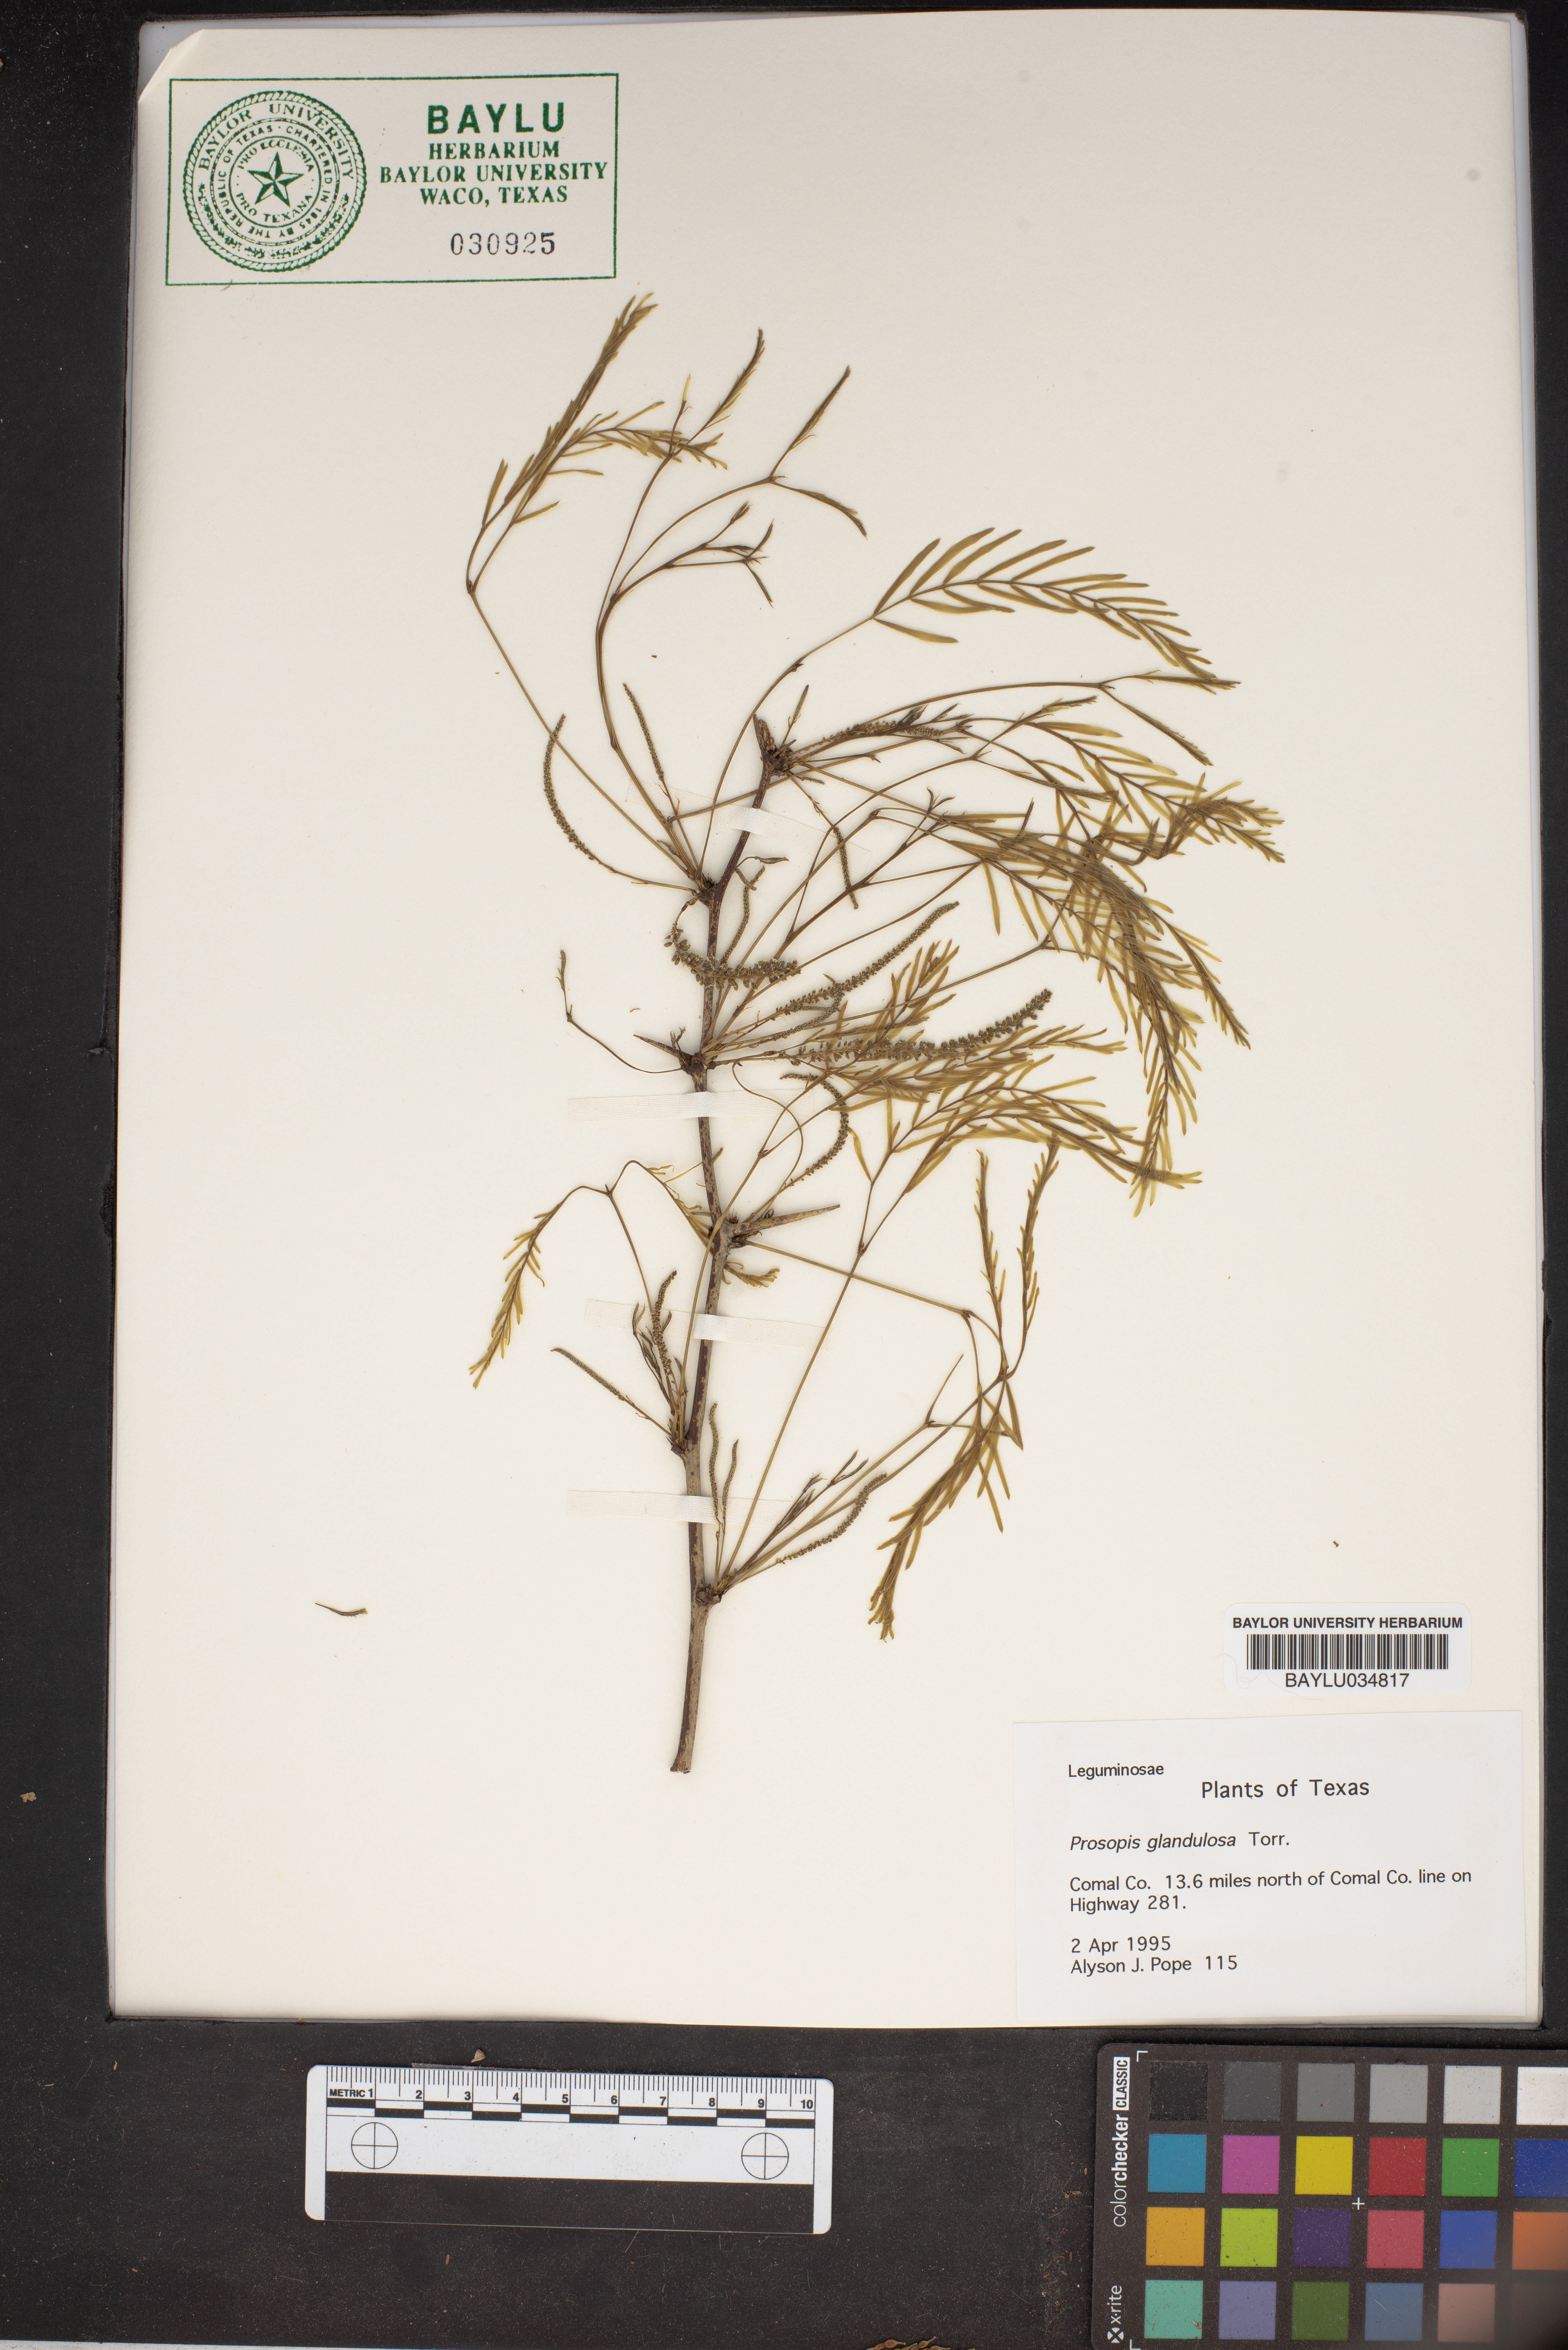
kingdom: Plantae
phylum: Tracheophyta
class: Magnoliopsida
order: Fabales
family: Fabaceae
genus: Prosopis
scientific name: Prosopis glandulosa
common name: Honey mesquite
